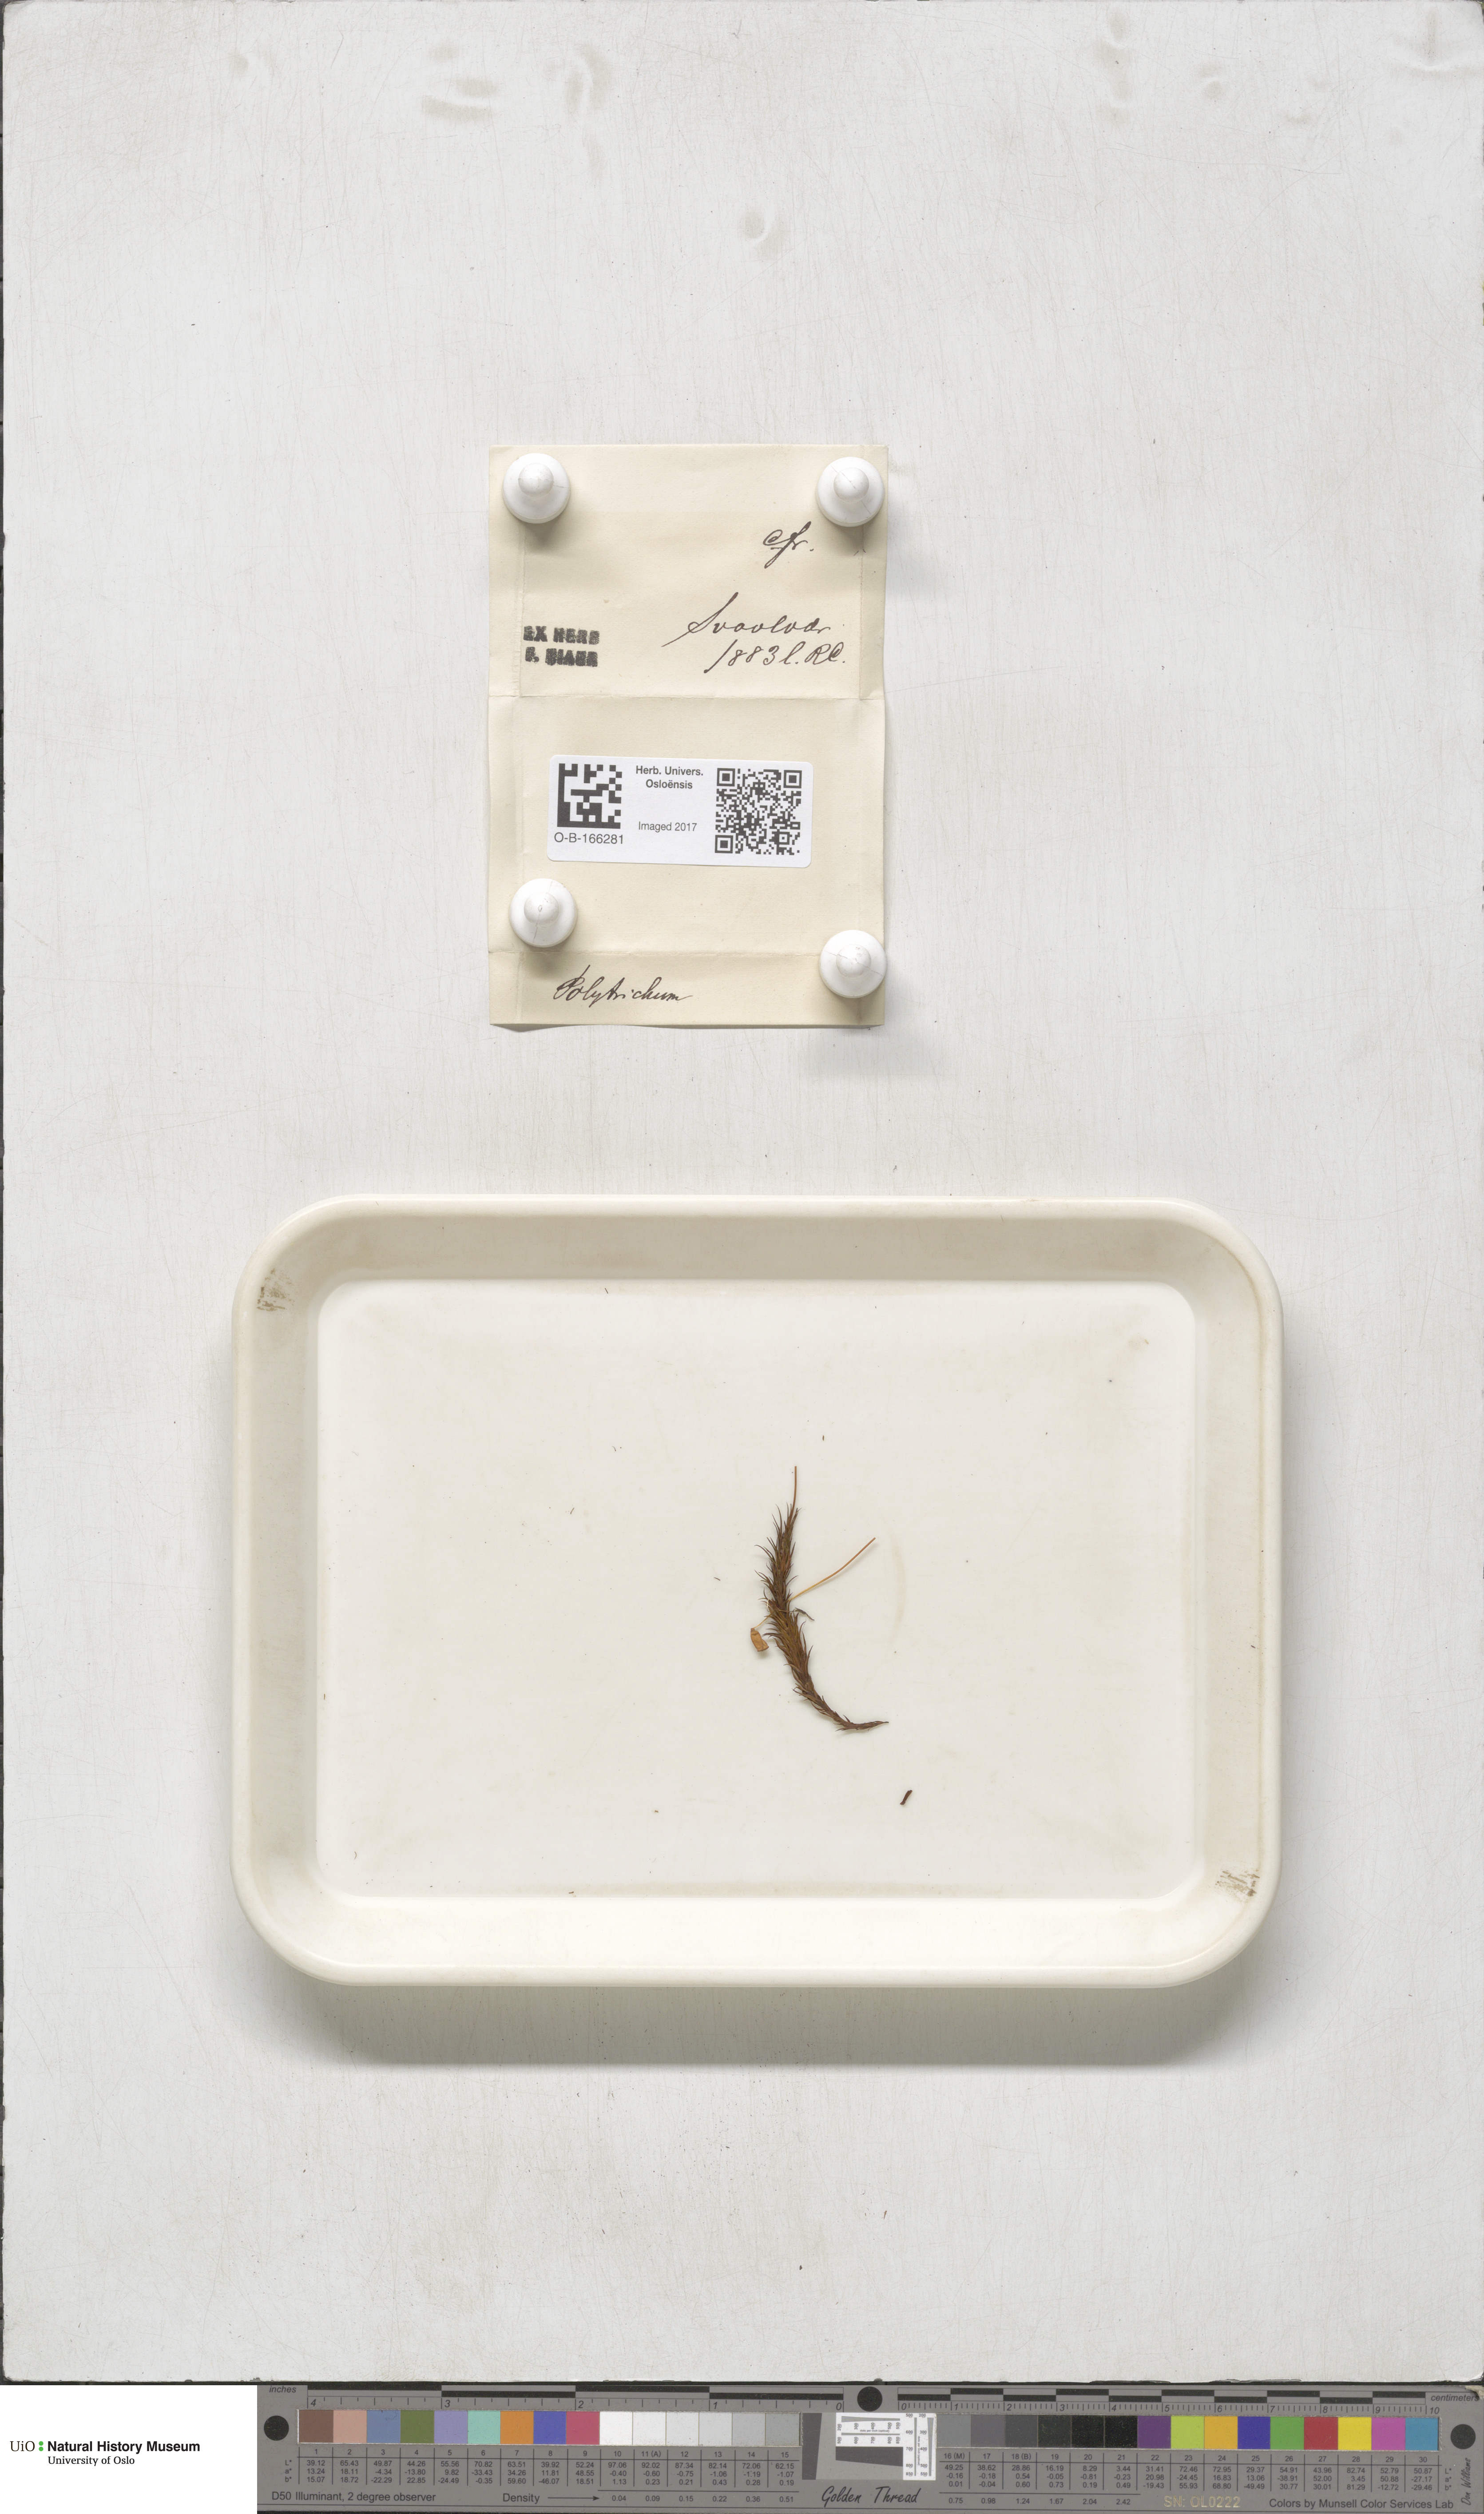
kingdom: Plantae
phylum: Bryophyta
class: Polytrichopsida
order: Polytrichales
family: Polytrichaceae
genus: Polytrichum
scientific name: Polytrichum
